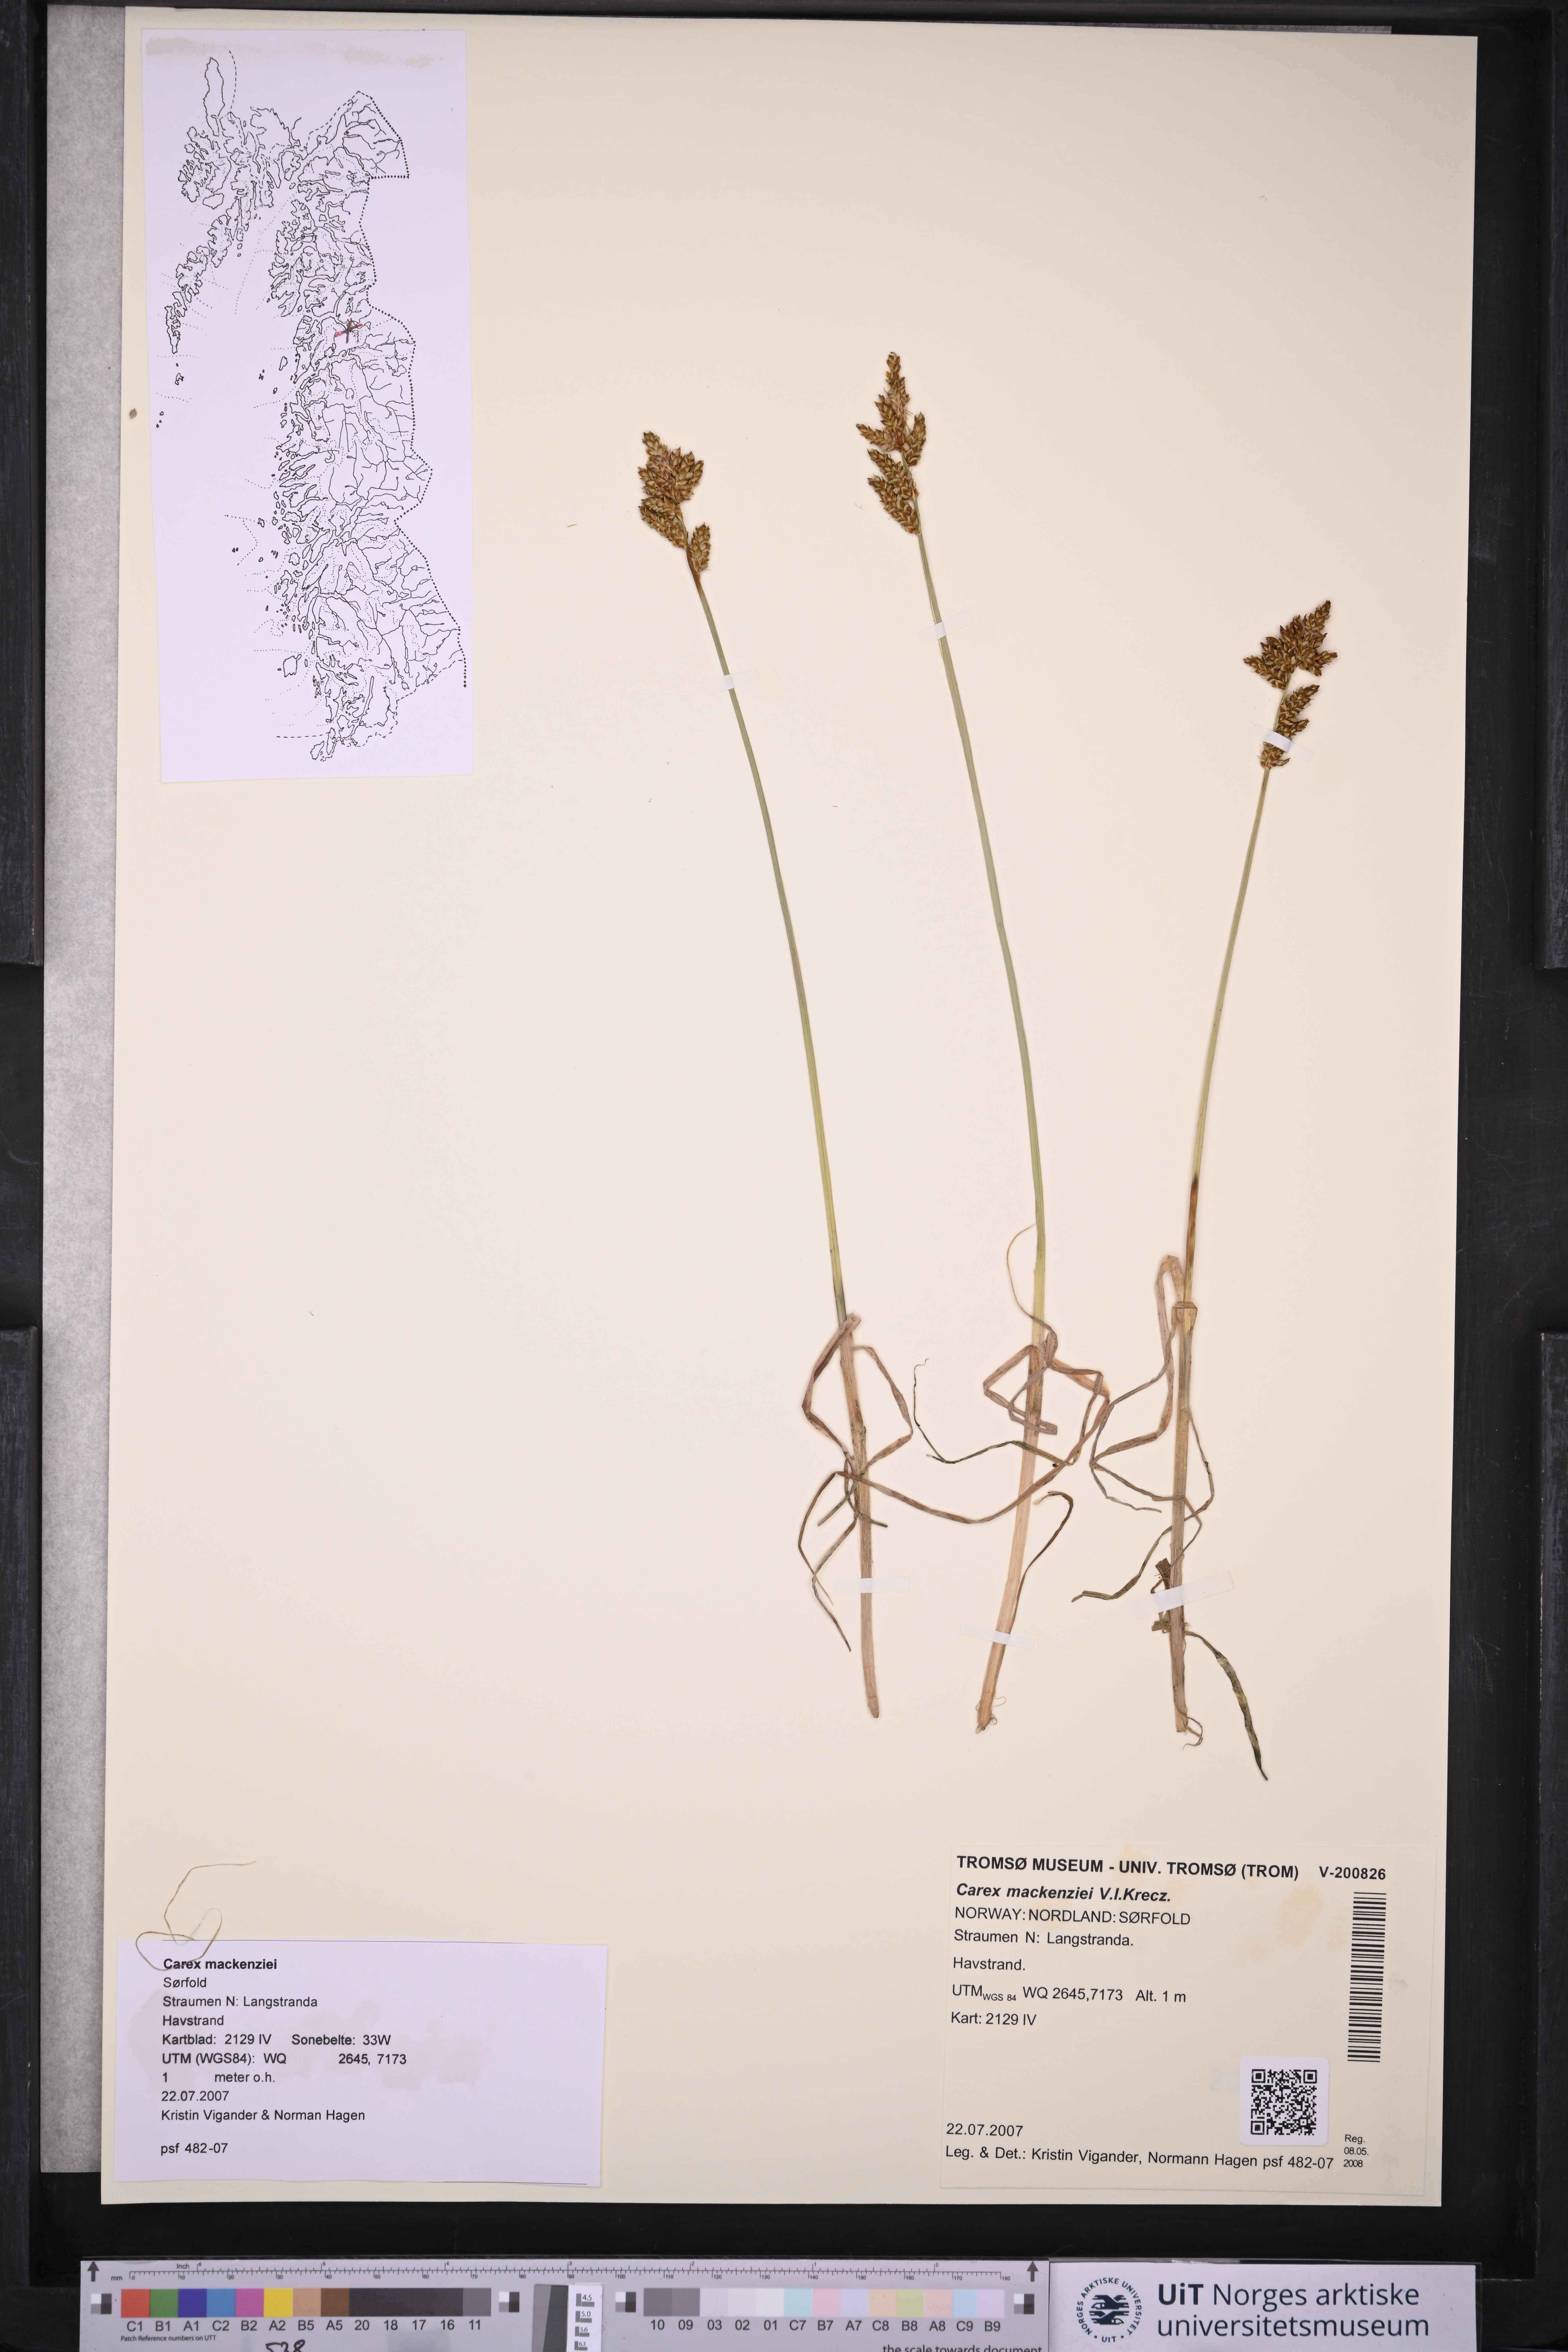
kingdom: Plantae
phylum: Tracheophyta
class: Liliopsida
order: Poales
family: Cyperaceae
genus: Carex
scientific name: Carex mackenziei
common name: Mackenzie's sedge
